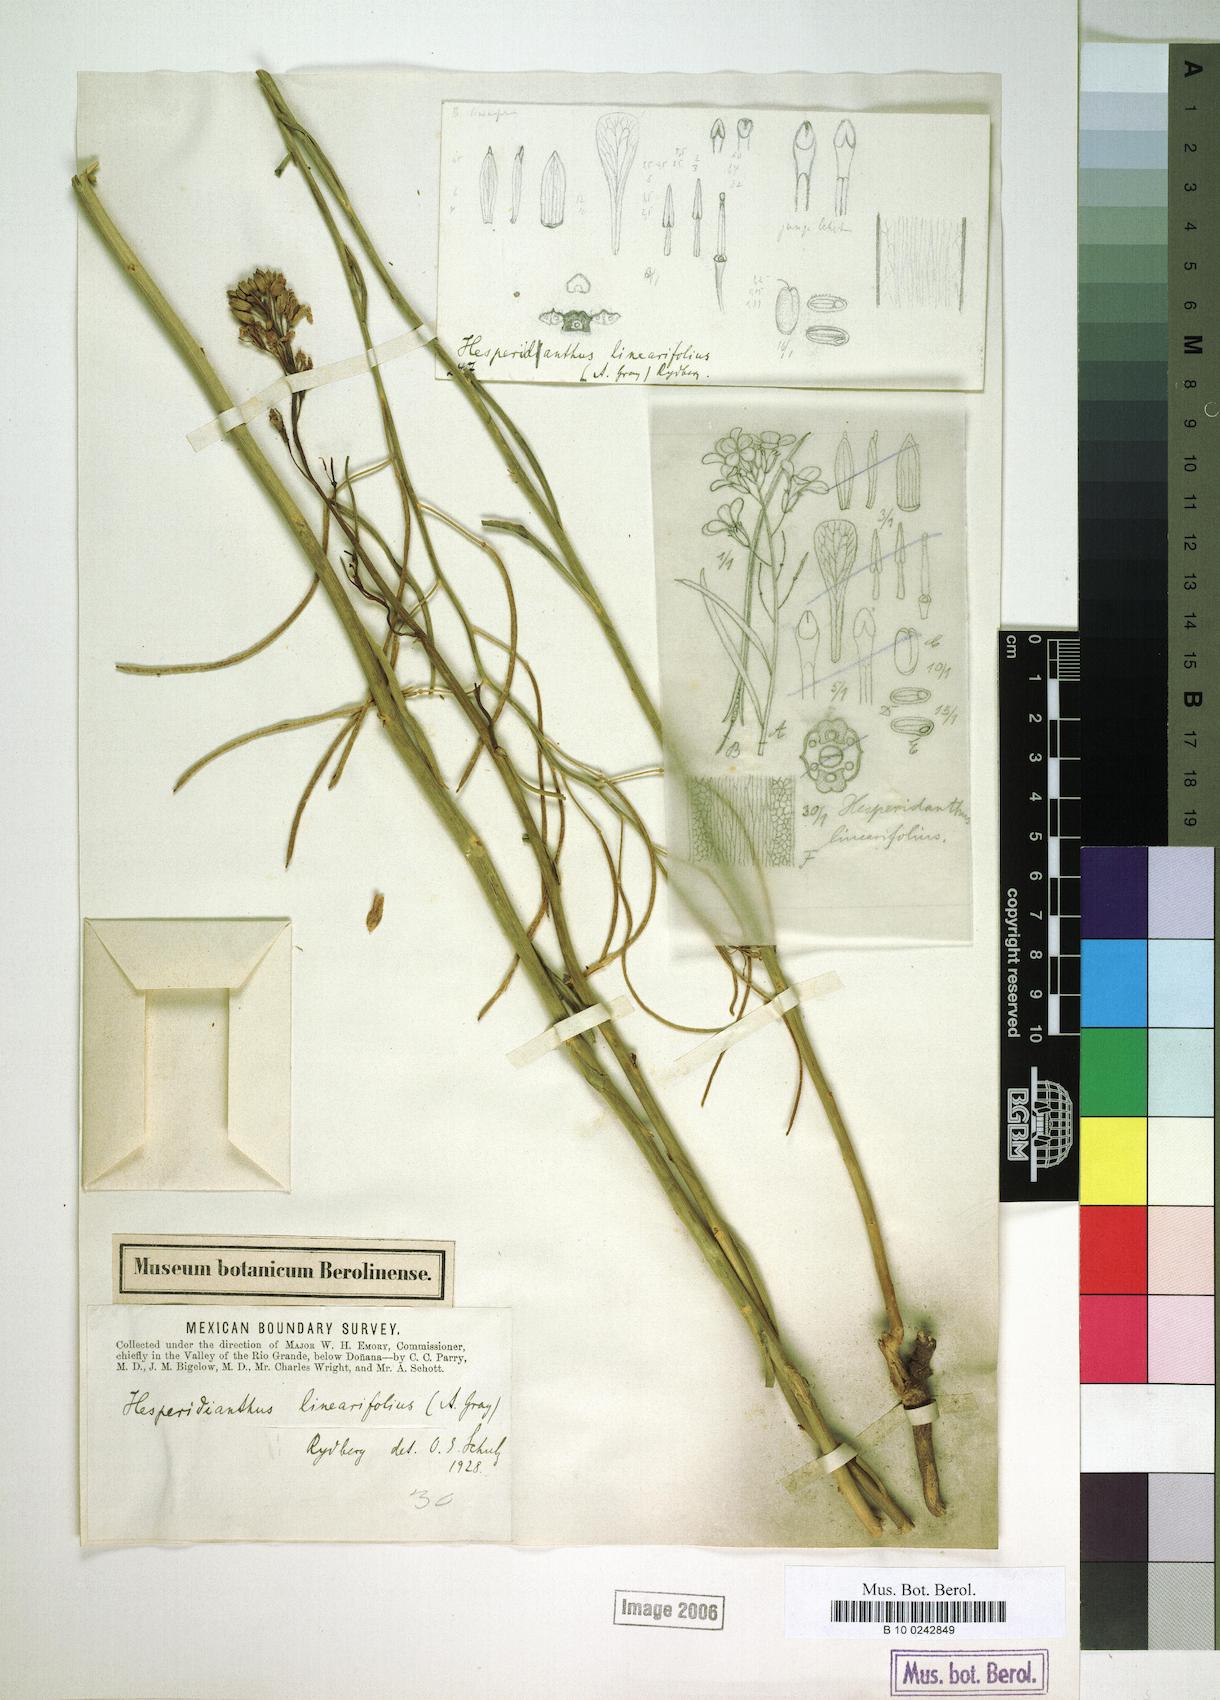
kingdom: Plantae
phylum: Tracheophyta
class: Magnoliopsida
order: Brassicales
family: Brassicaceae
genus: Hesperidanthus
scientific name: Hesperidanthus linearifolius
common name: Slim-leaf plains mustard
